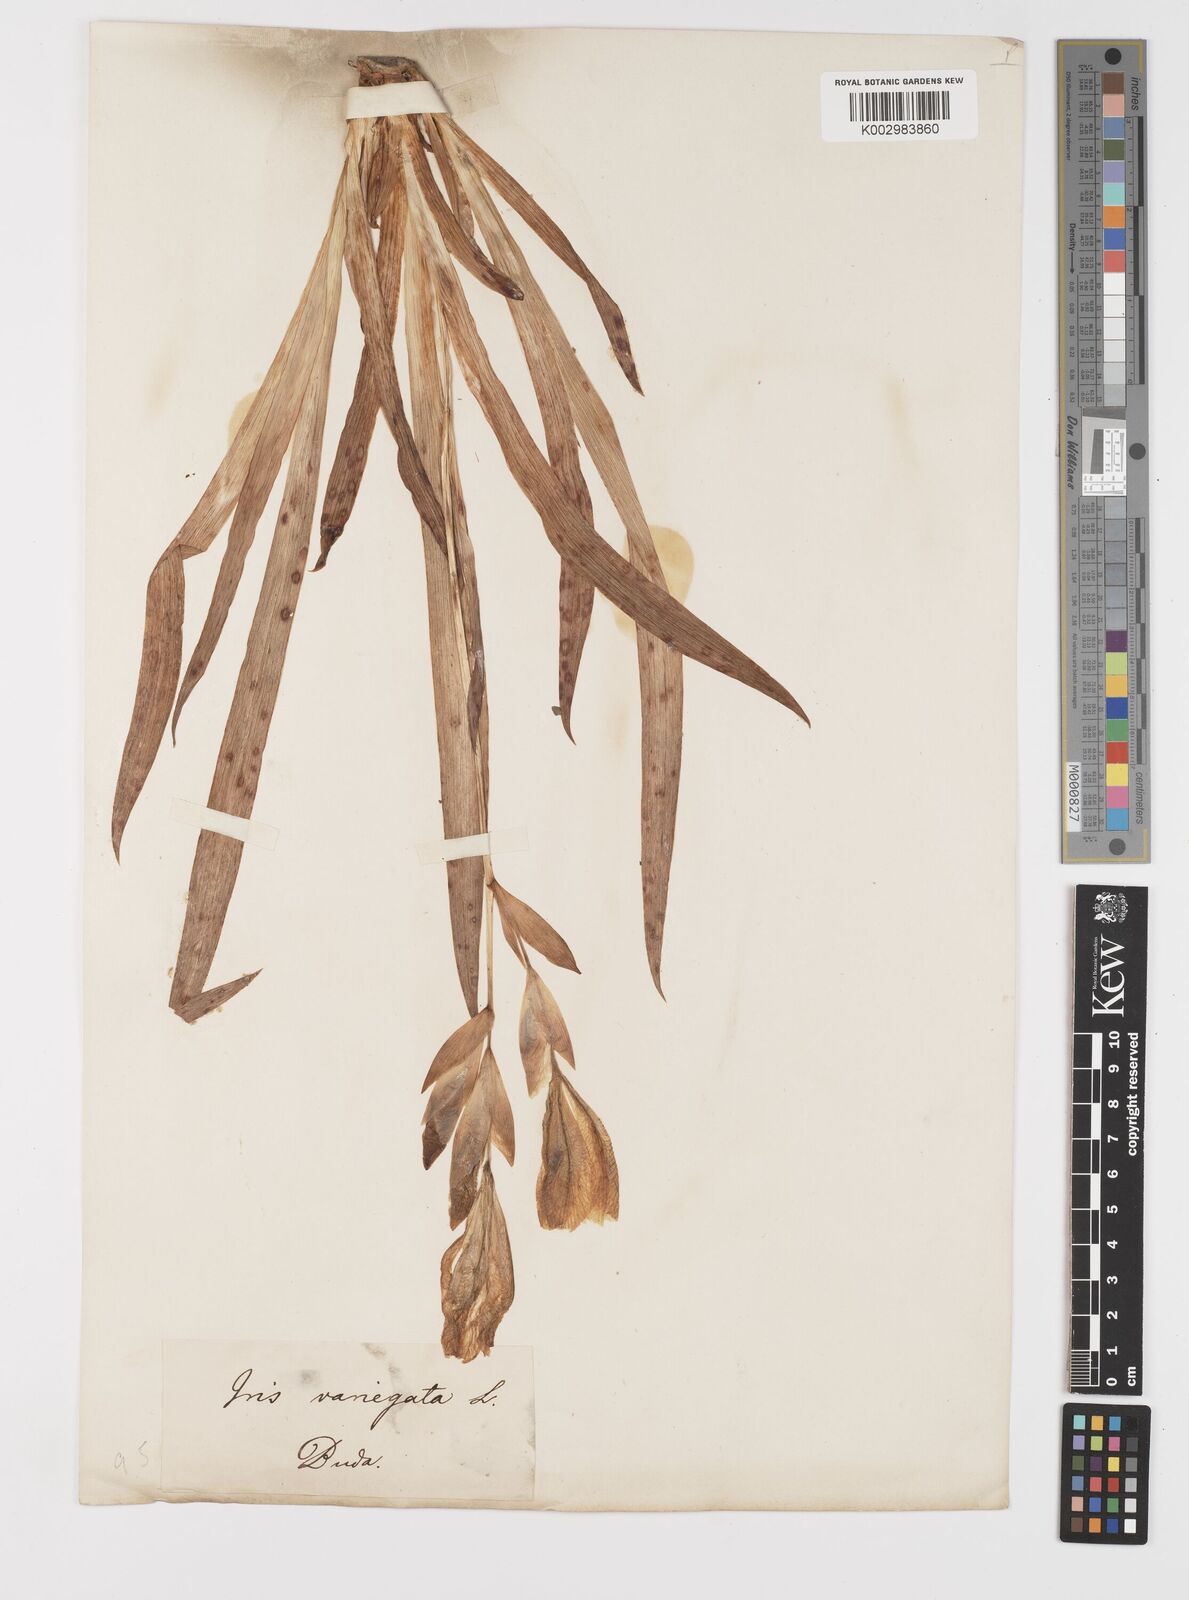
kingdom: Plantae
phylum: Tracheophyta
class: Liliopsida
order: Asparagales
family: Iridaceae
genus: Iris
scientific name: Iris variegata
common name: Hungarian iris
